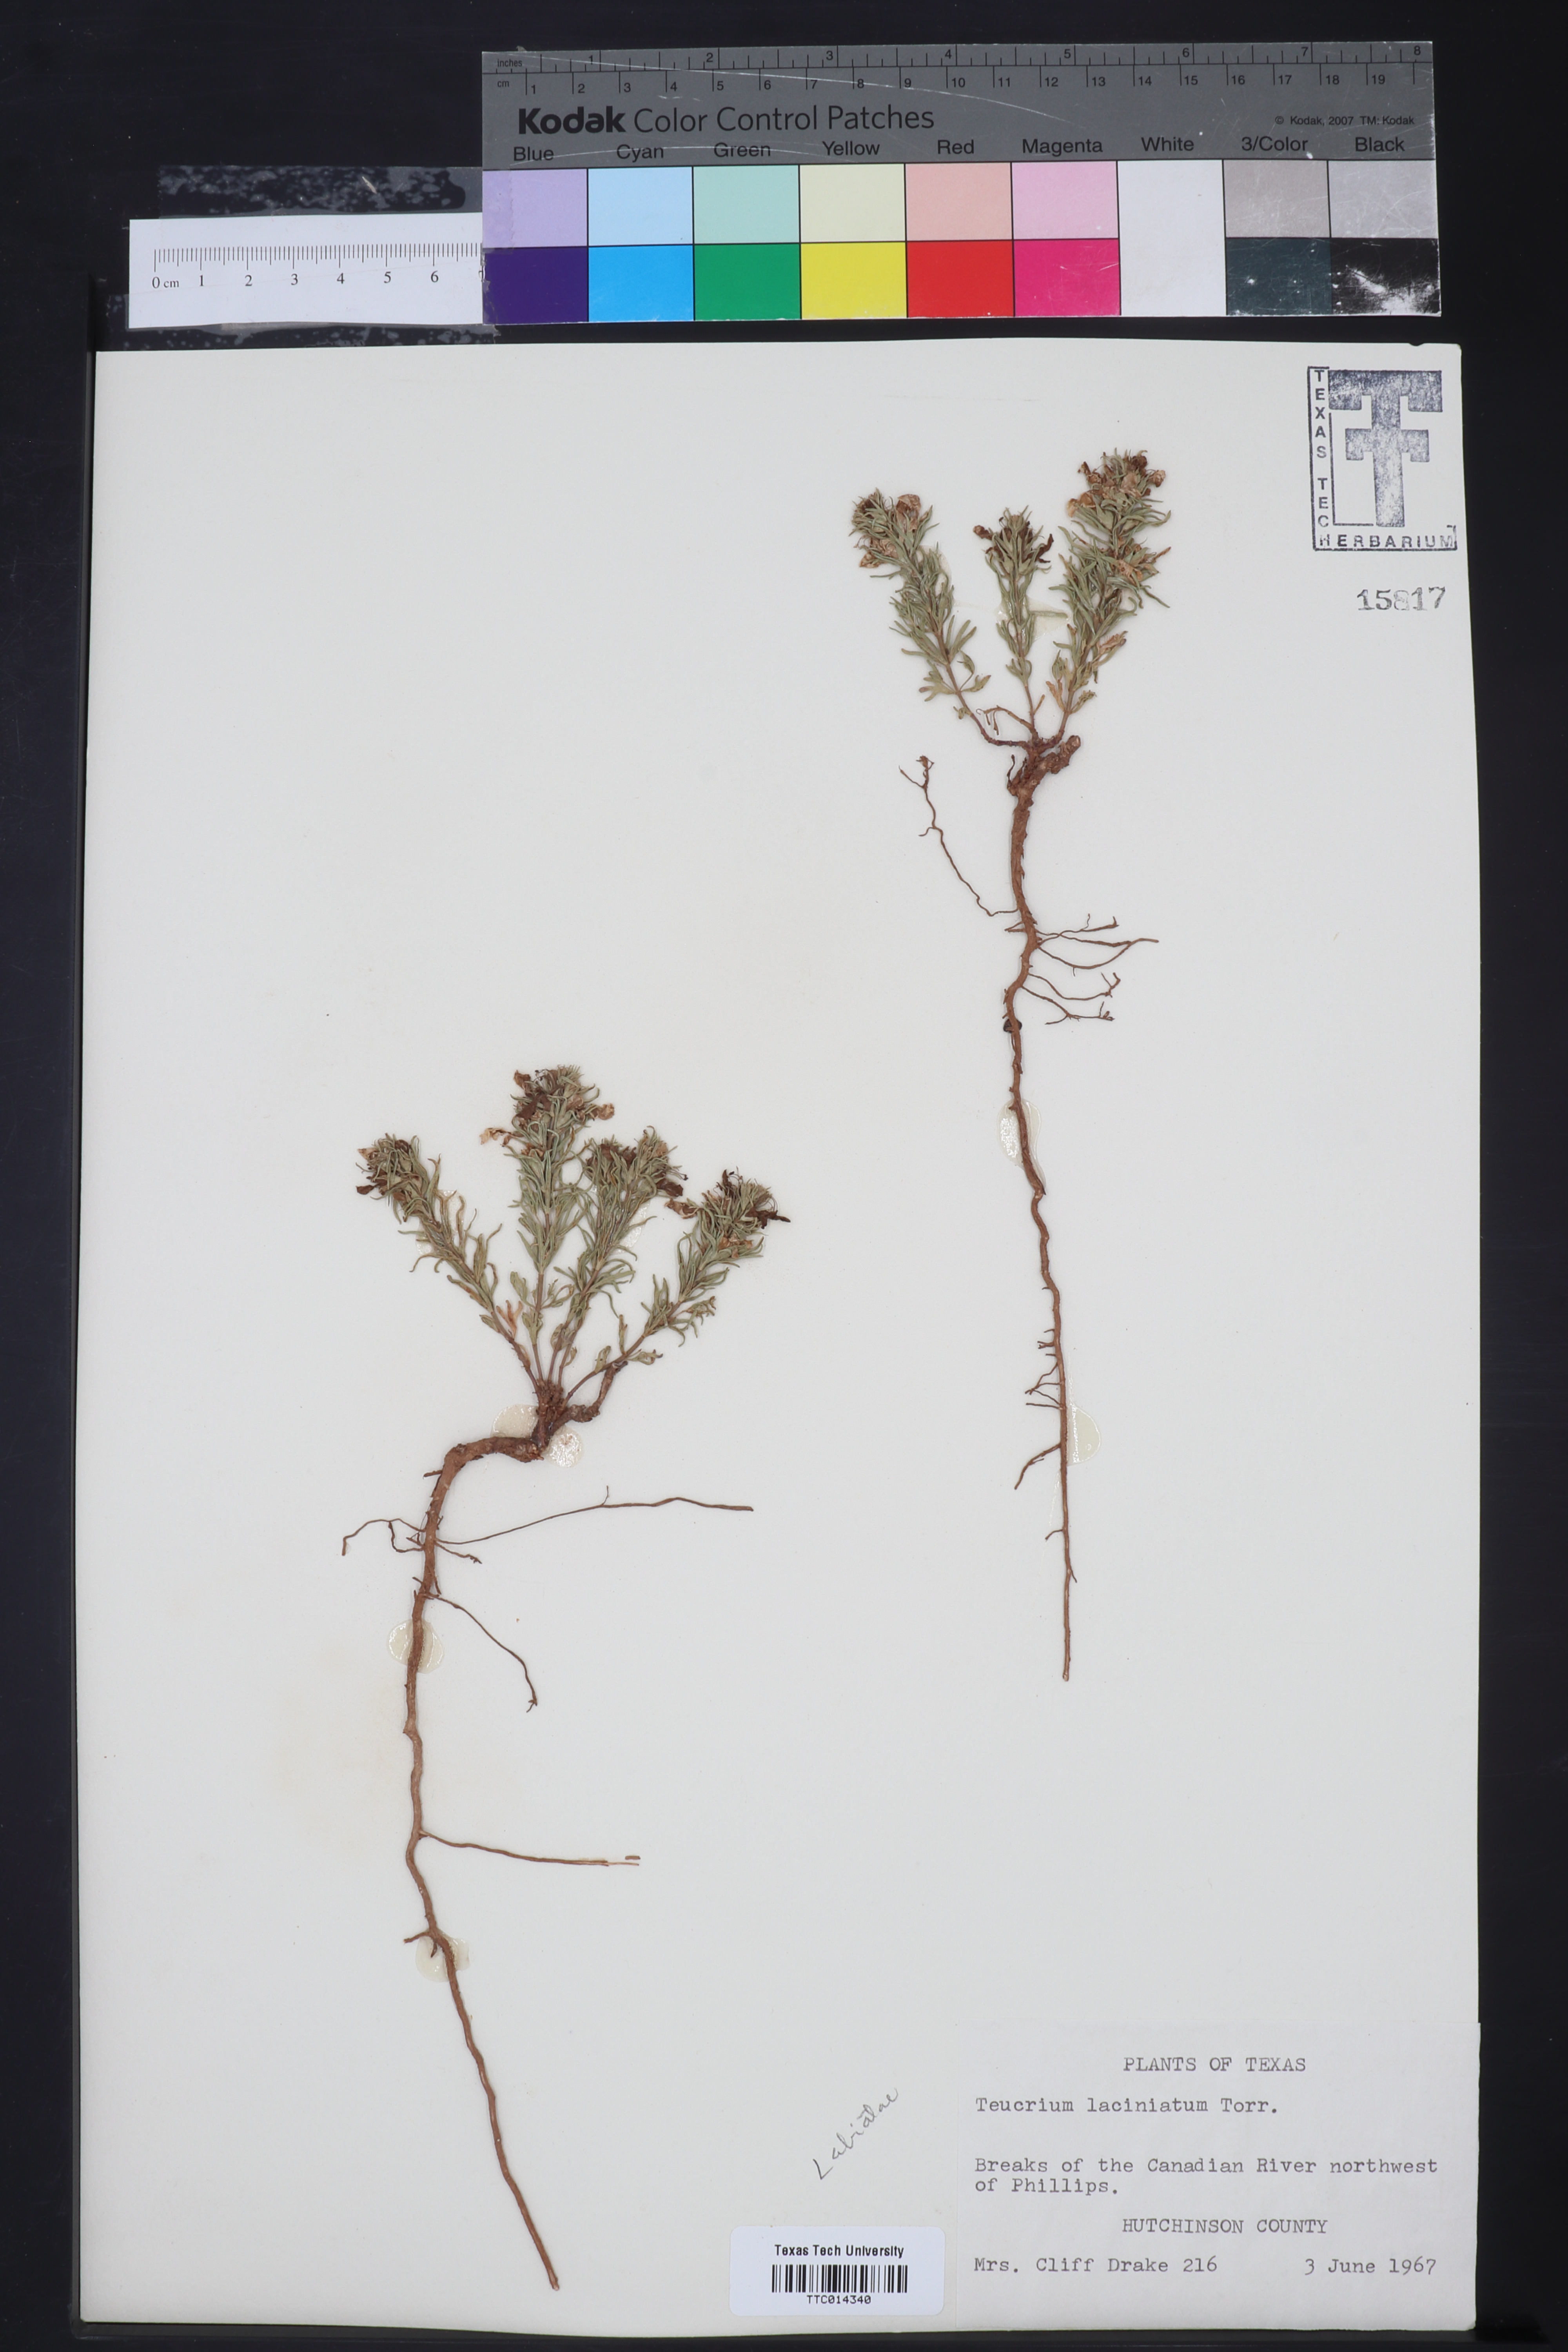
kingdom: Plantae
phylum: Tracheophyta
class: Magnoliopsida
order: Lamiales
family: Lamiaceae
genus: Teucrium
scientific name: Teucrium laciniatum
